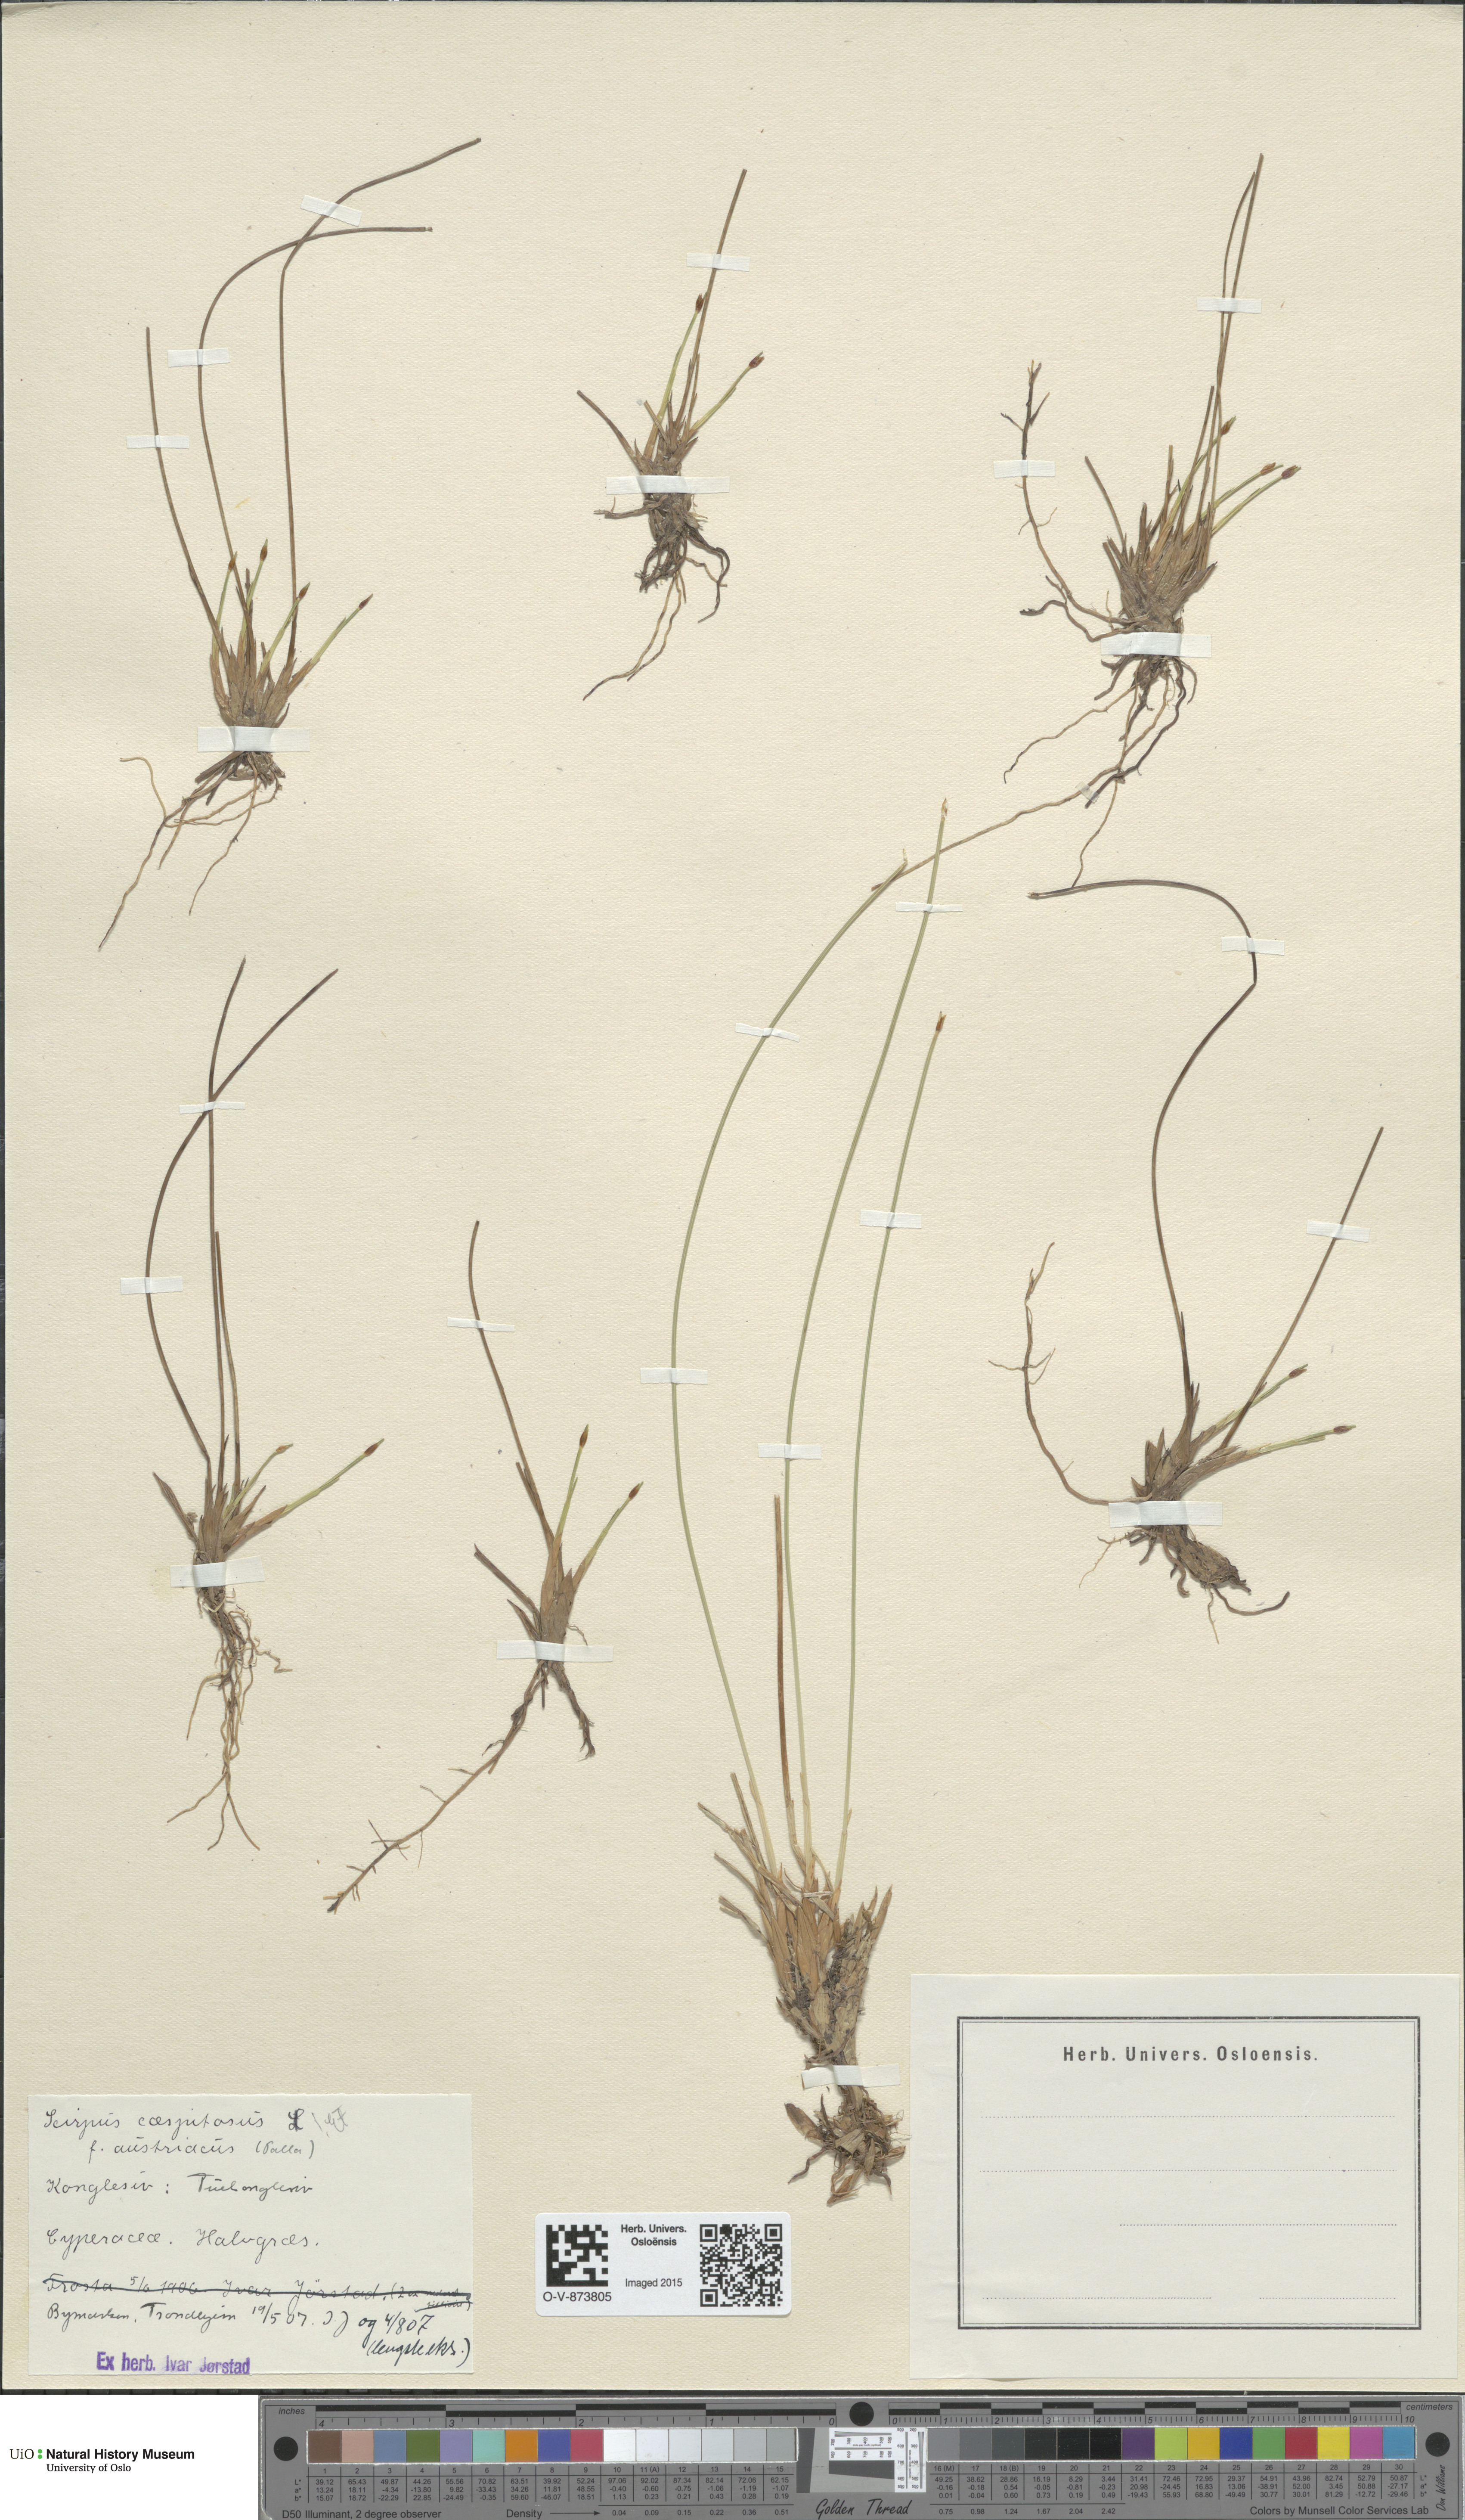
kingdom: Plantae
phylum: Tracheophyta
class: Liliopsida
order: Poales
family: Cyperaceae
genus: Trichophorum
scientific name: Trichophorum cespitosum
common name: Cespitose bulrush
